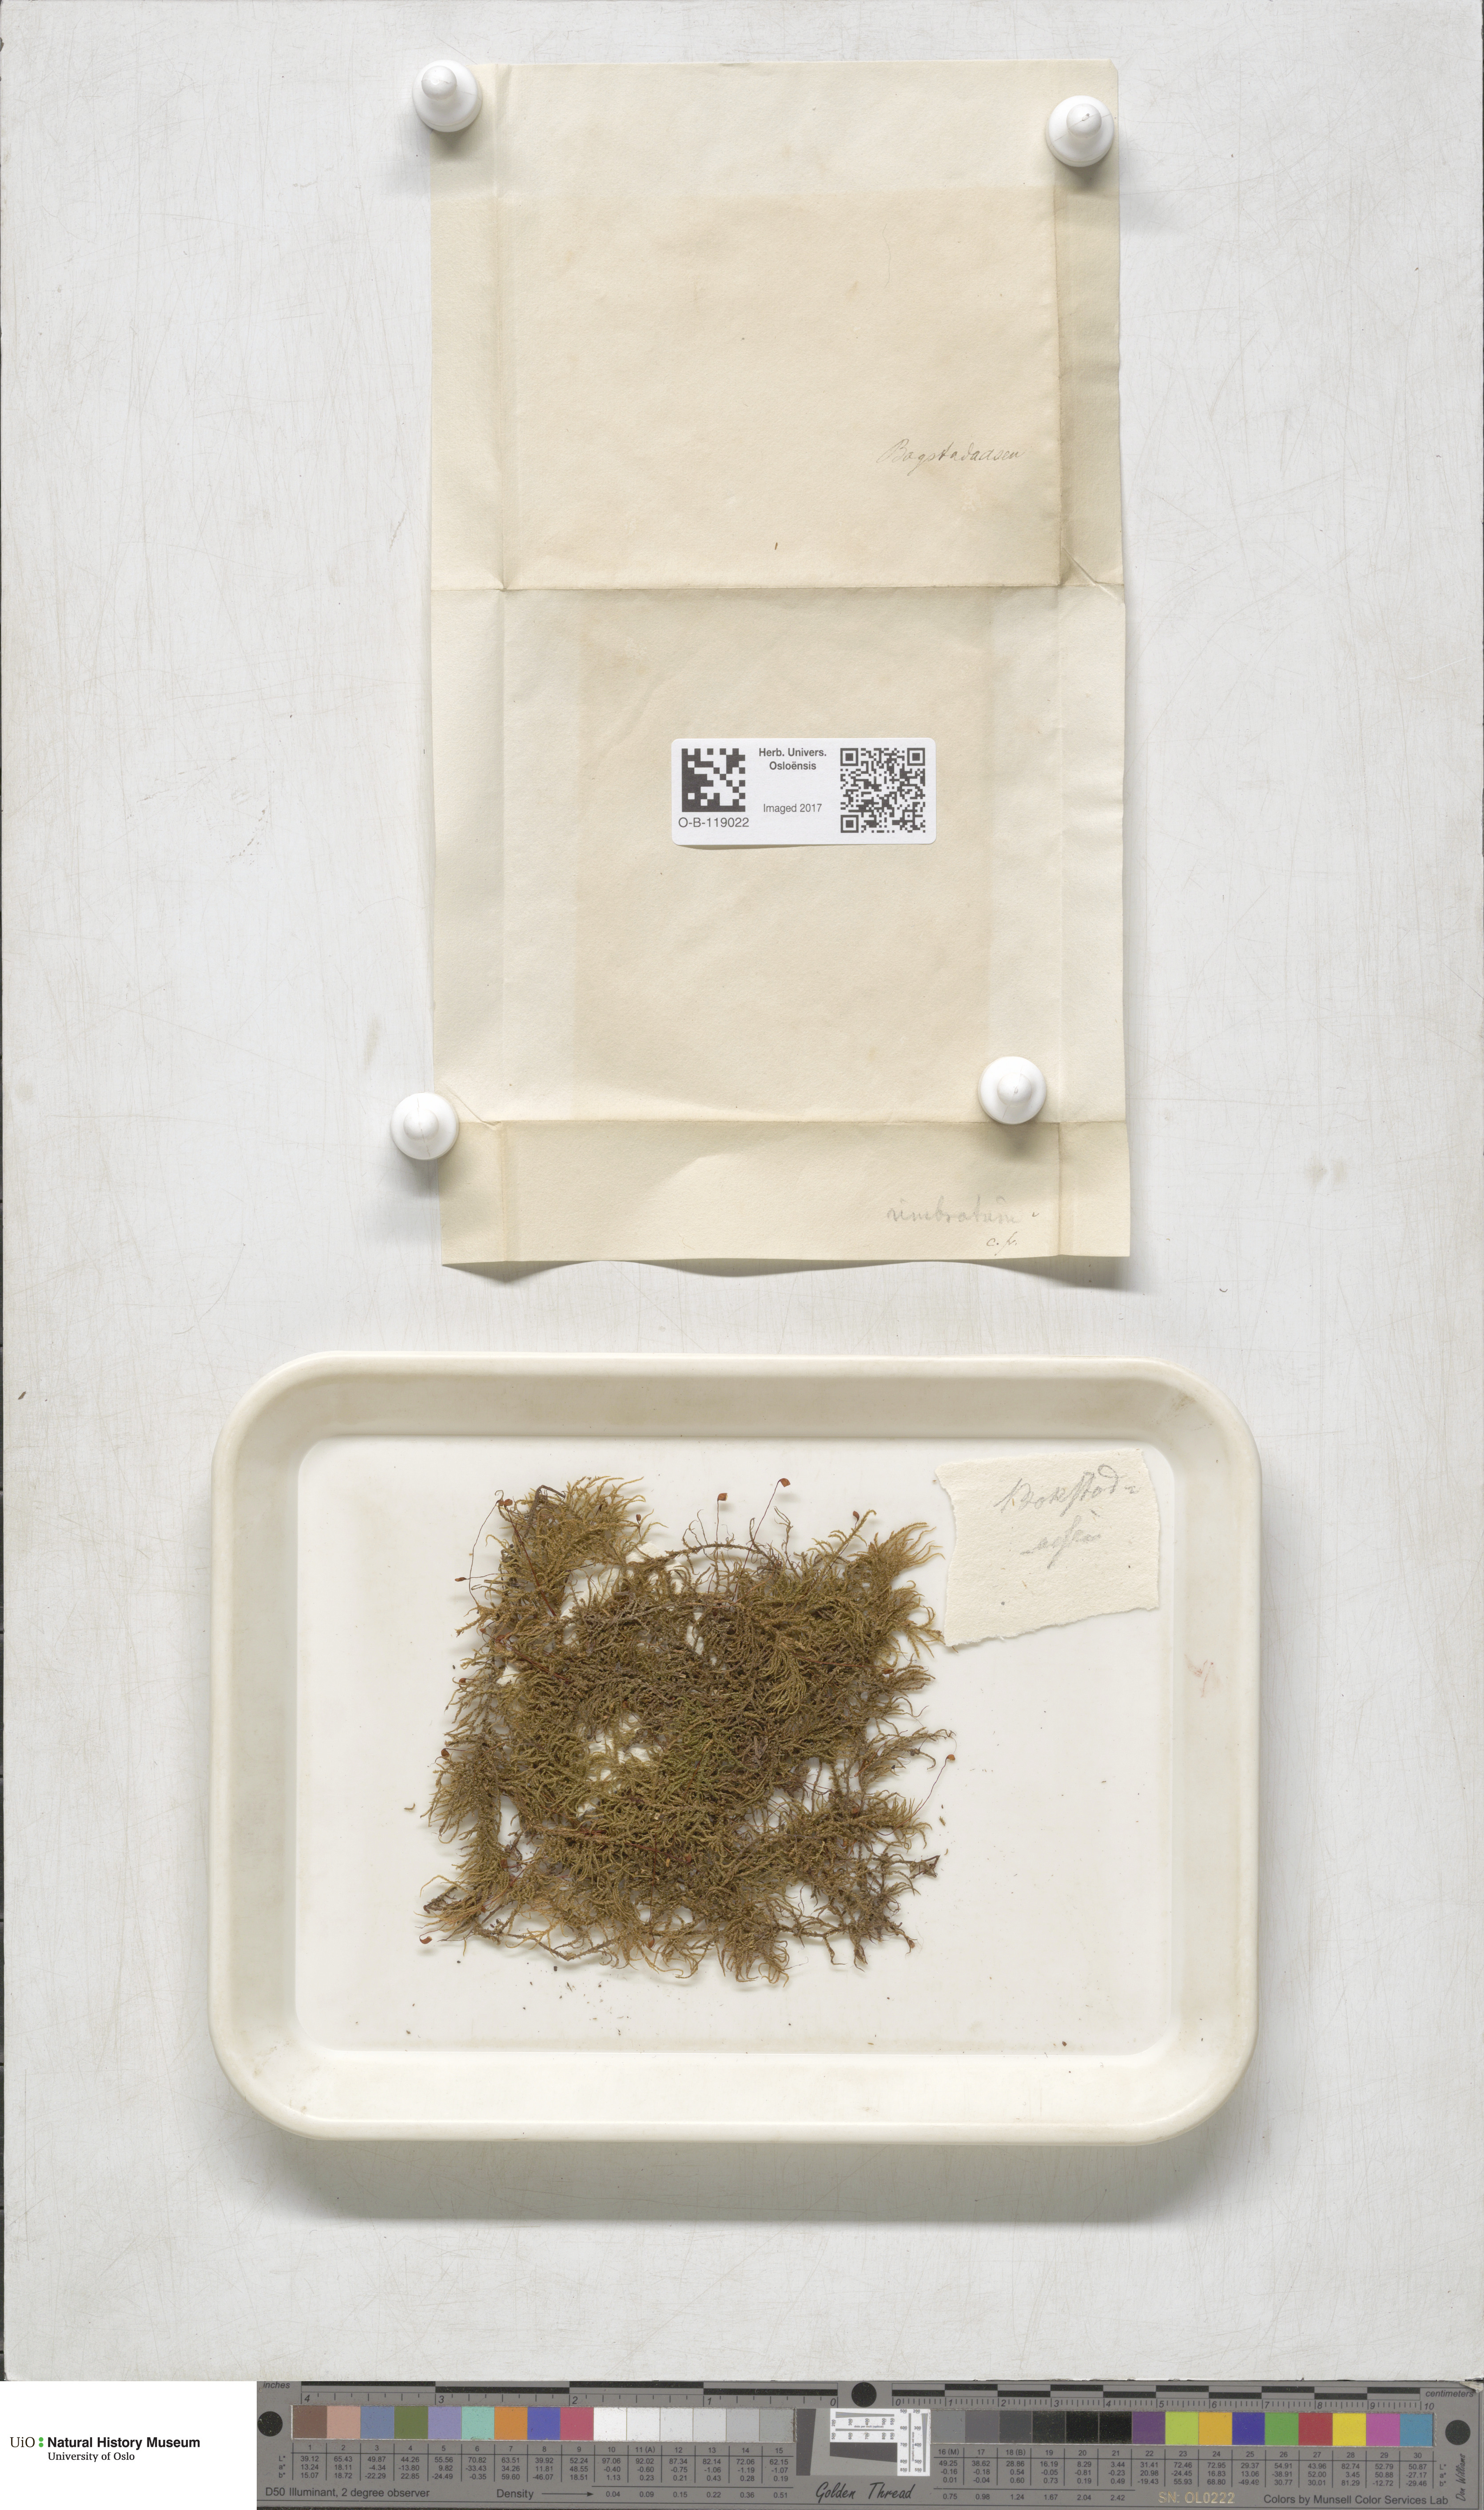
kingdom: Plantae
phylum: Bryophyta
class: Bryopsida
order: Hypnales
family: Hylocomiaceae
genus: Hylocomiastrum
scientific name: Hylocomiastrum umbratum
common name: Shaded woods moss
